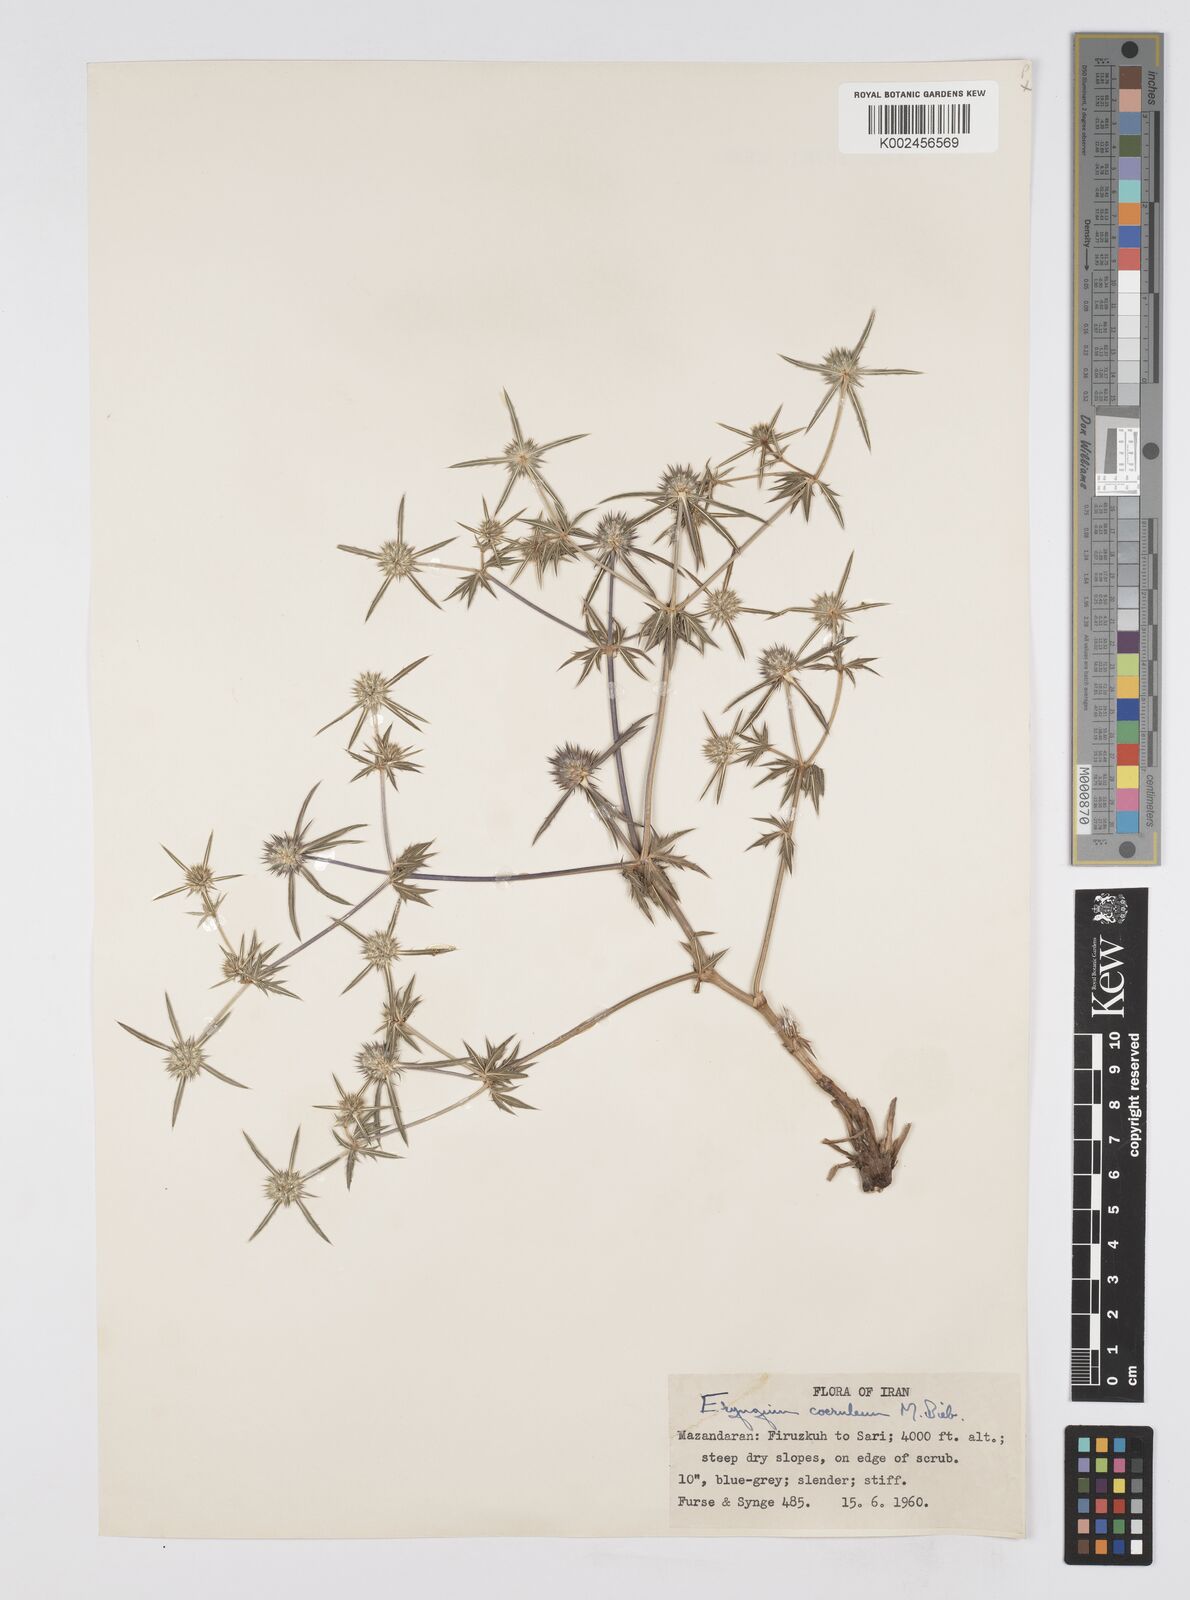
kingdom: Plantae
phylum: Tracheophyta
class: Magnoliopsida
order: Apiales
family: Apiaceae
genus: Eryngium
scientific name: Eryngium caeruleum
